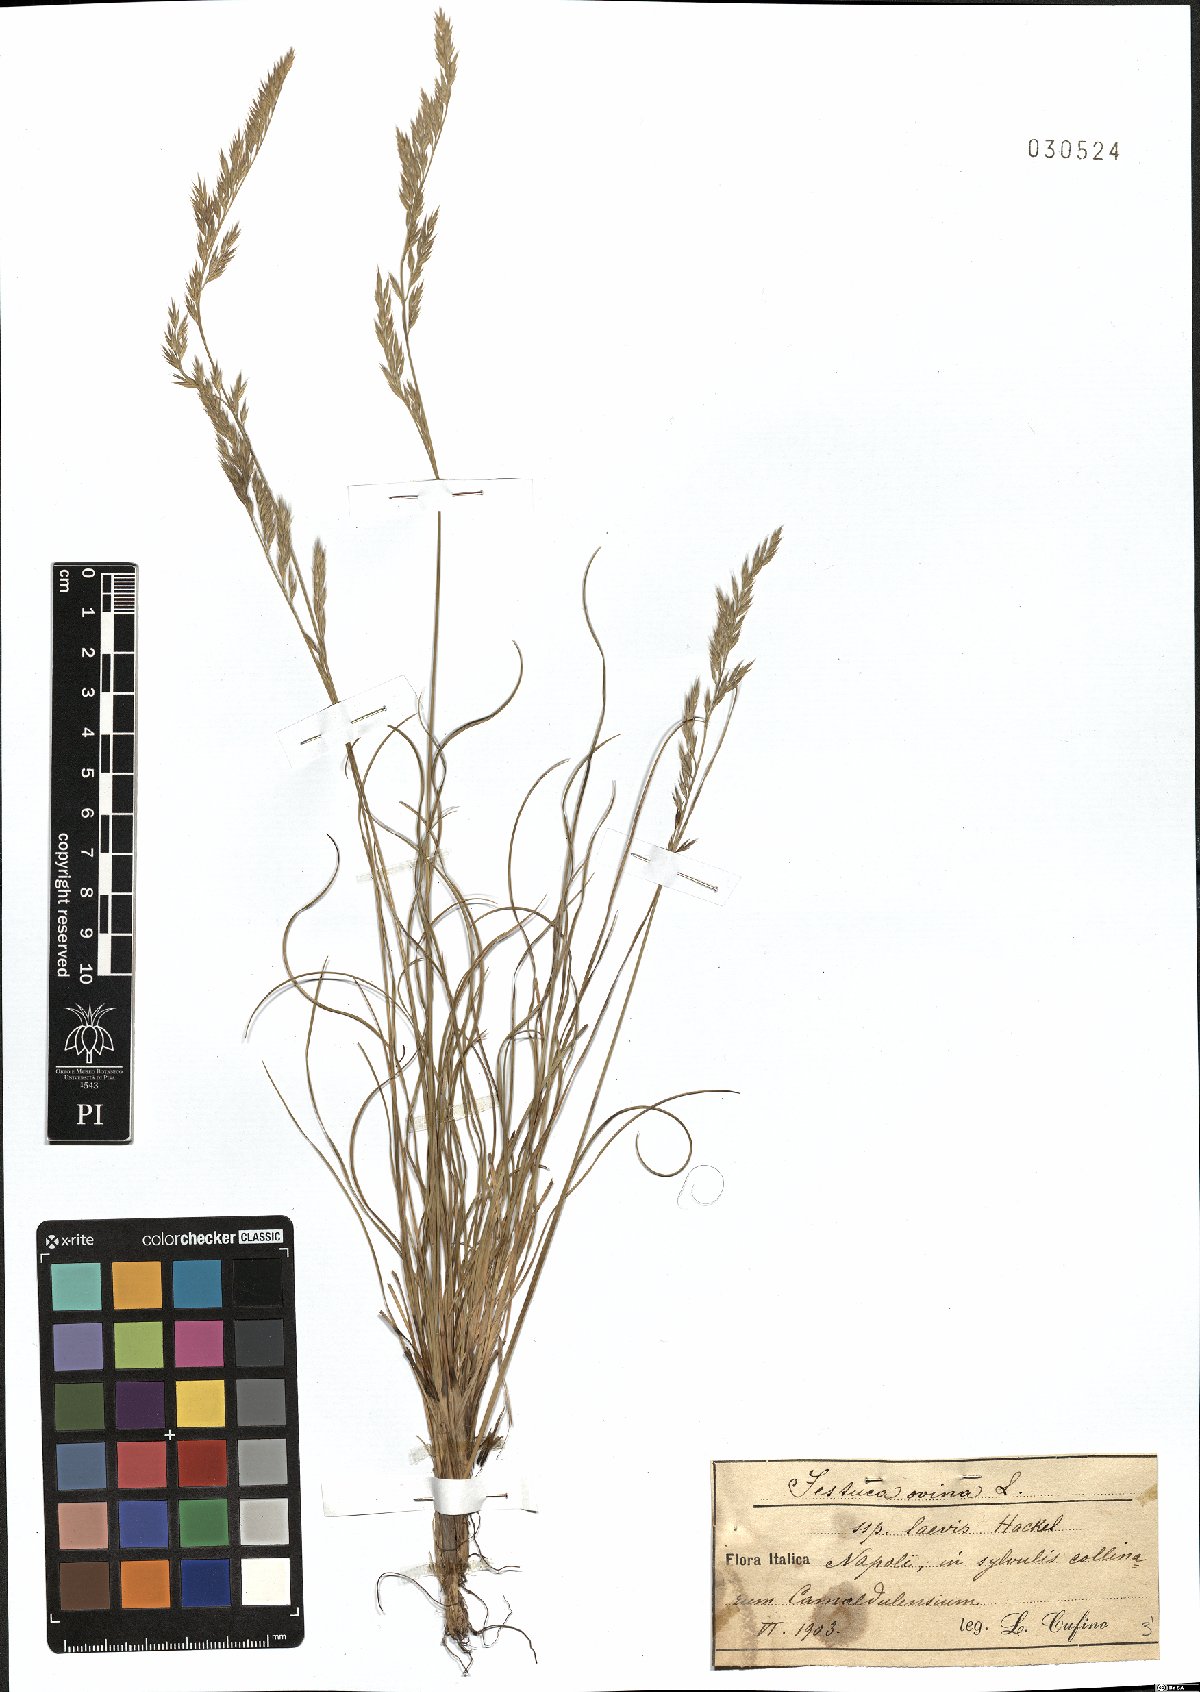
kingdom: Plantae
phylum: Tracheophyta
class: Liliopsida
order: Poales
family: Poaceae
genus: Festuca
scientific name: Festuca circummediterranea
